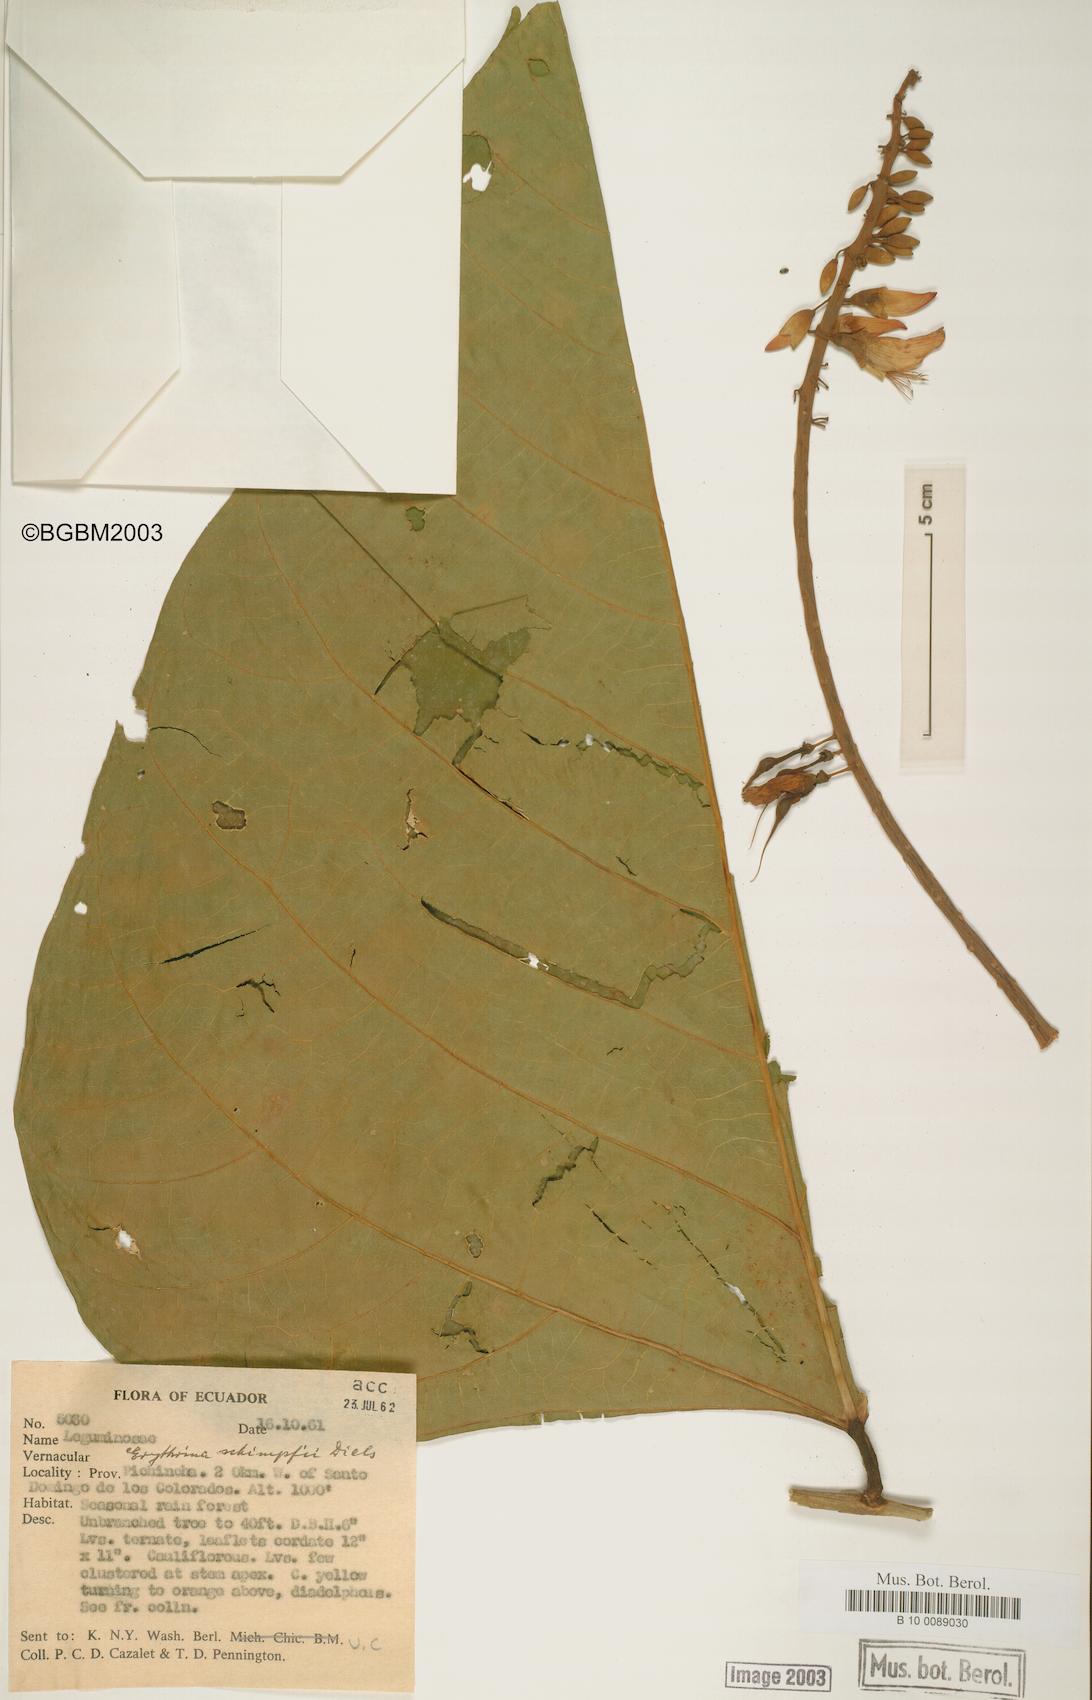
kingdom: Plantae
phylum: Tracheophyta
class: Magnoliopsida
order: Fabales
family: Fabaceae
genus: Erythrina
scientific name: Erythrina schimpffii
